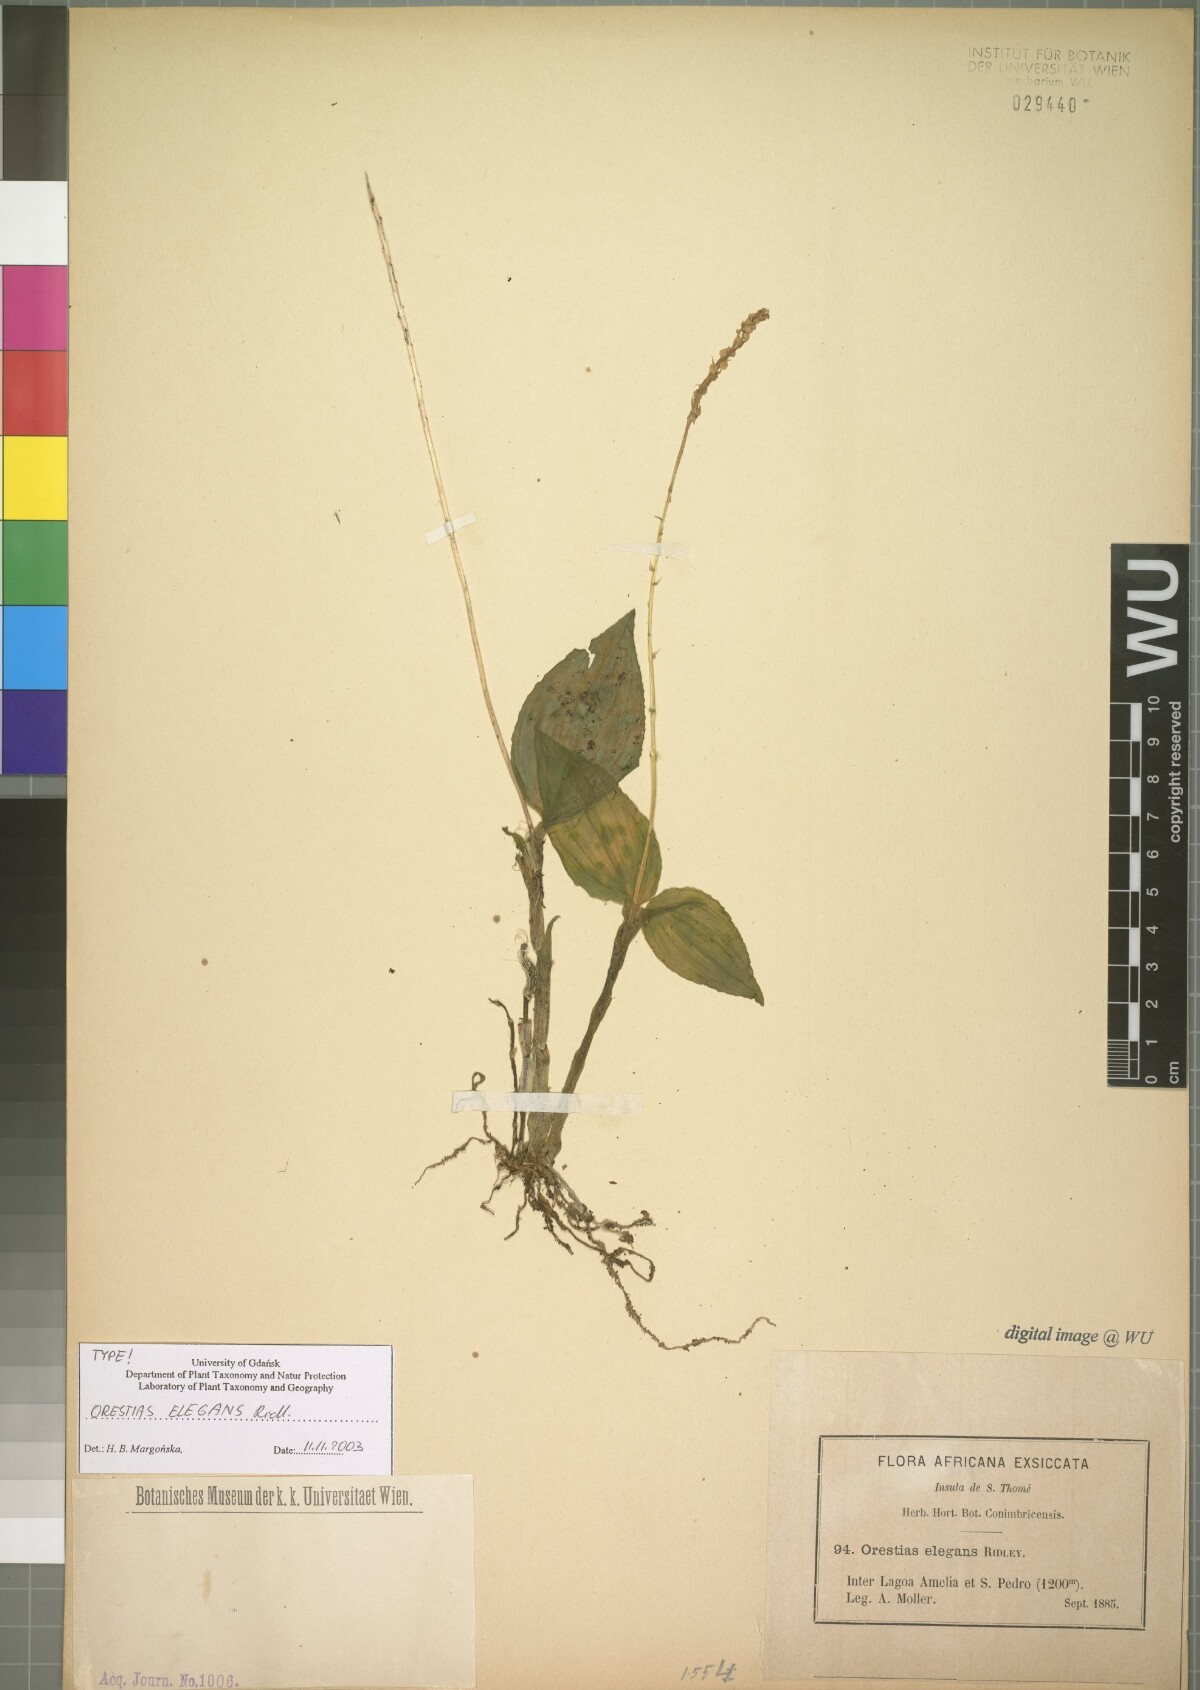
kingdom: Plantae
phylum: Tracheophyta
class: Liliopsida
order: Asparagales
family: Orchidaceae
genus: Orestias
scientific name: Orestias elegans
